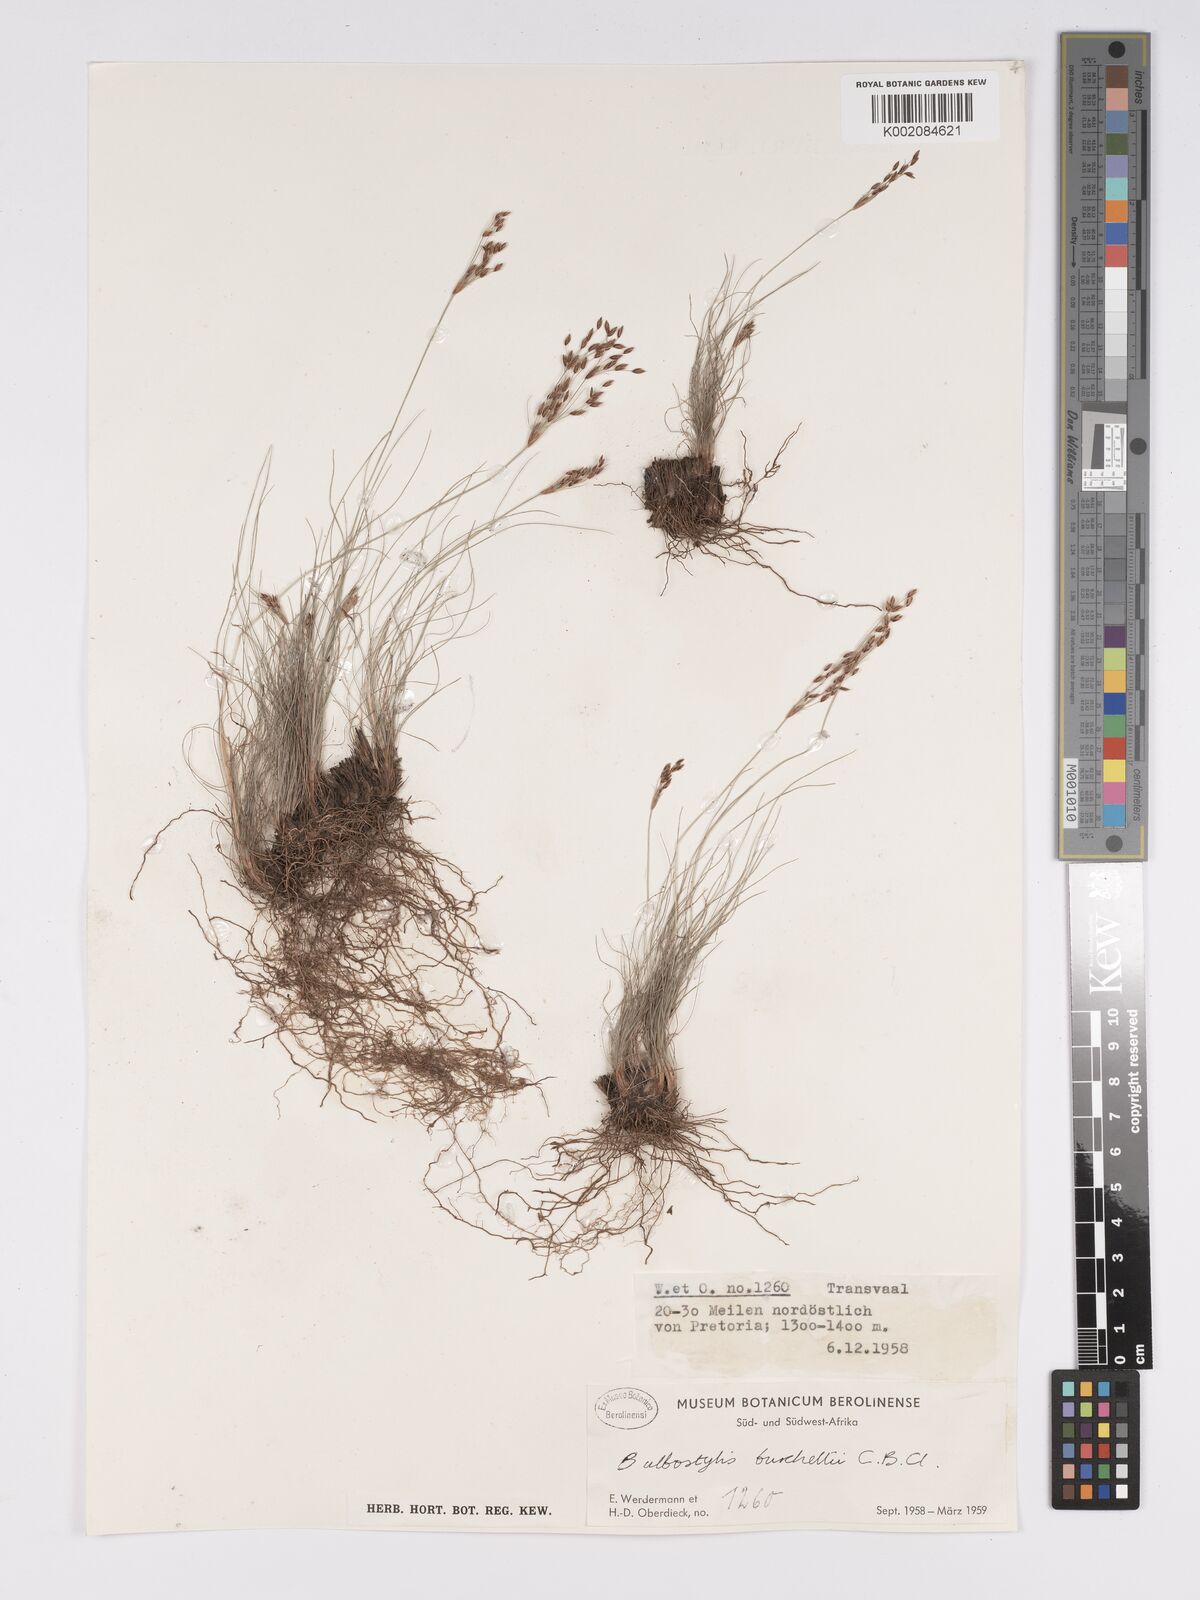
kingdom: Plantae
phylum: Tracheophyta
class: Liliopsida
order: Poales
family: Cyperaceae
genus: Bulbostylis
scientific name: Bulbostylis burchellii
